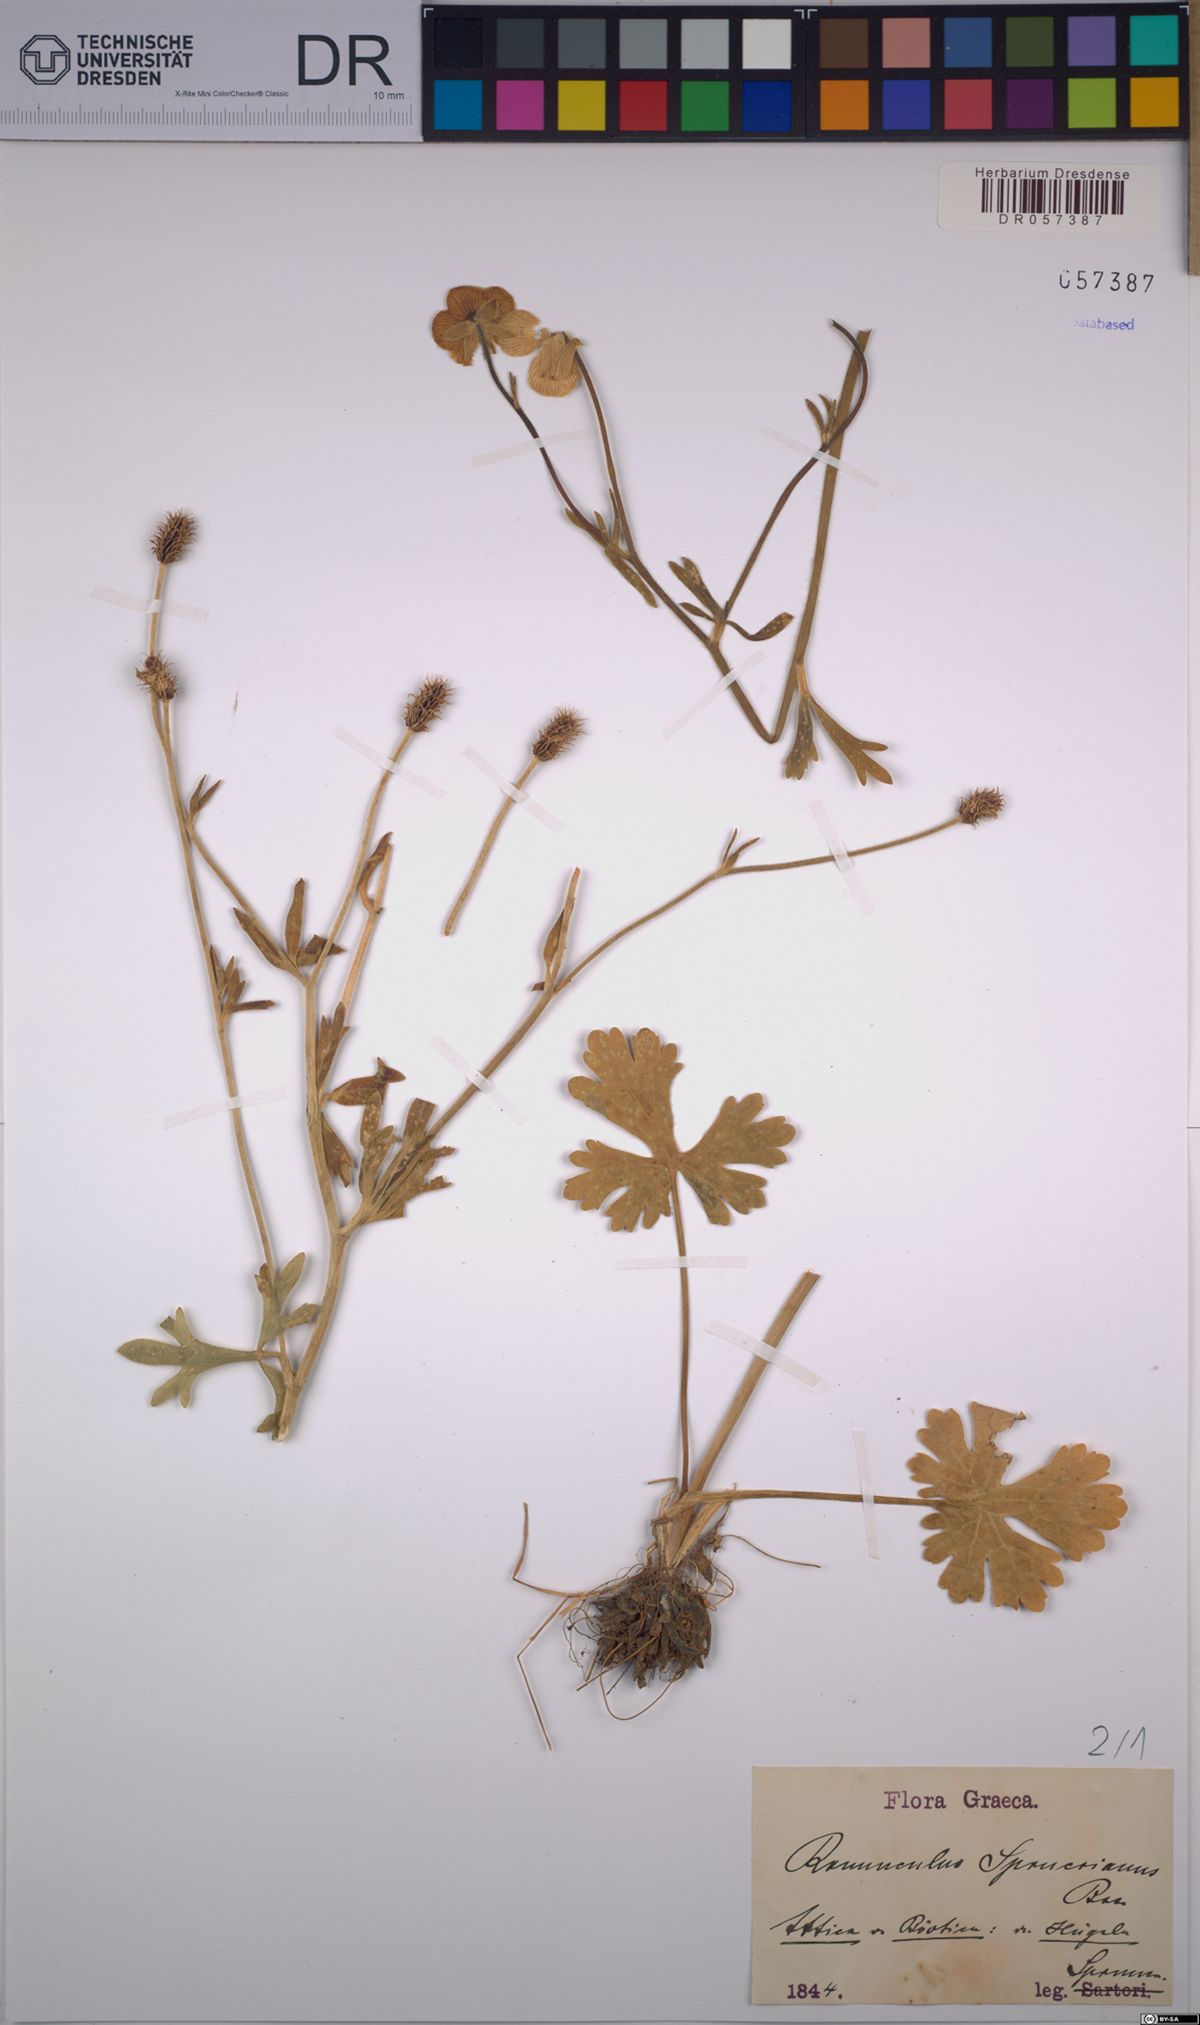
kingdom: Plantae
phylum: Tracheophyta
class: Magnoliopsida
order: Ranunculales
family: Ranunculaceae
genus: Ranunculus
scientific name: Ranunculus sprunerianus
